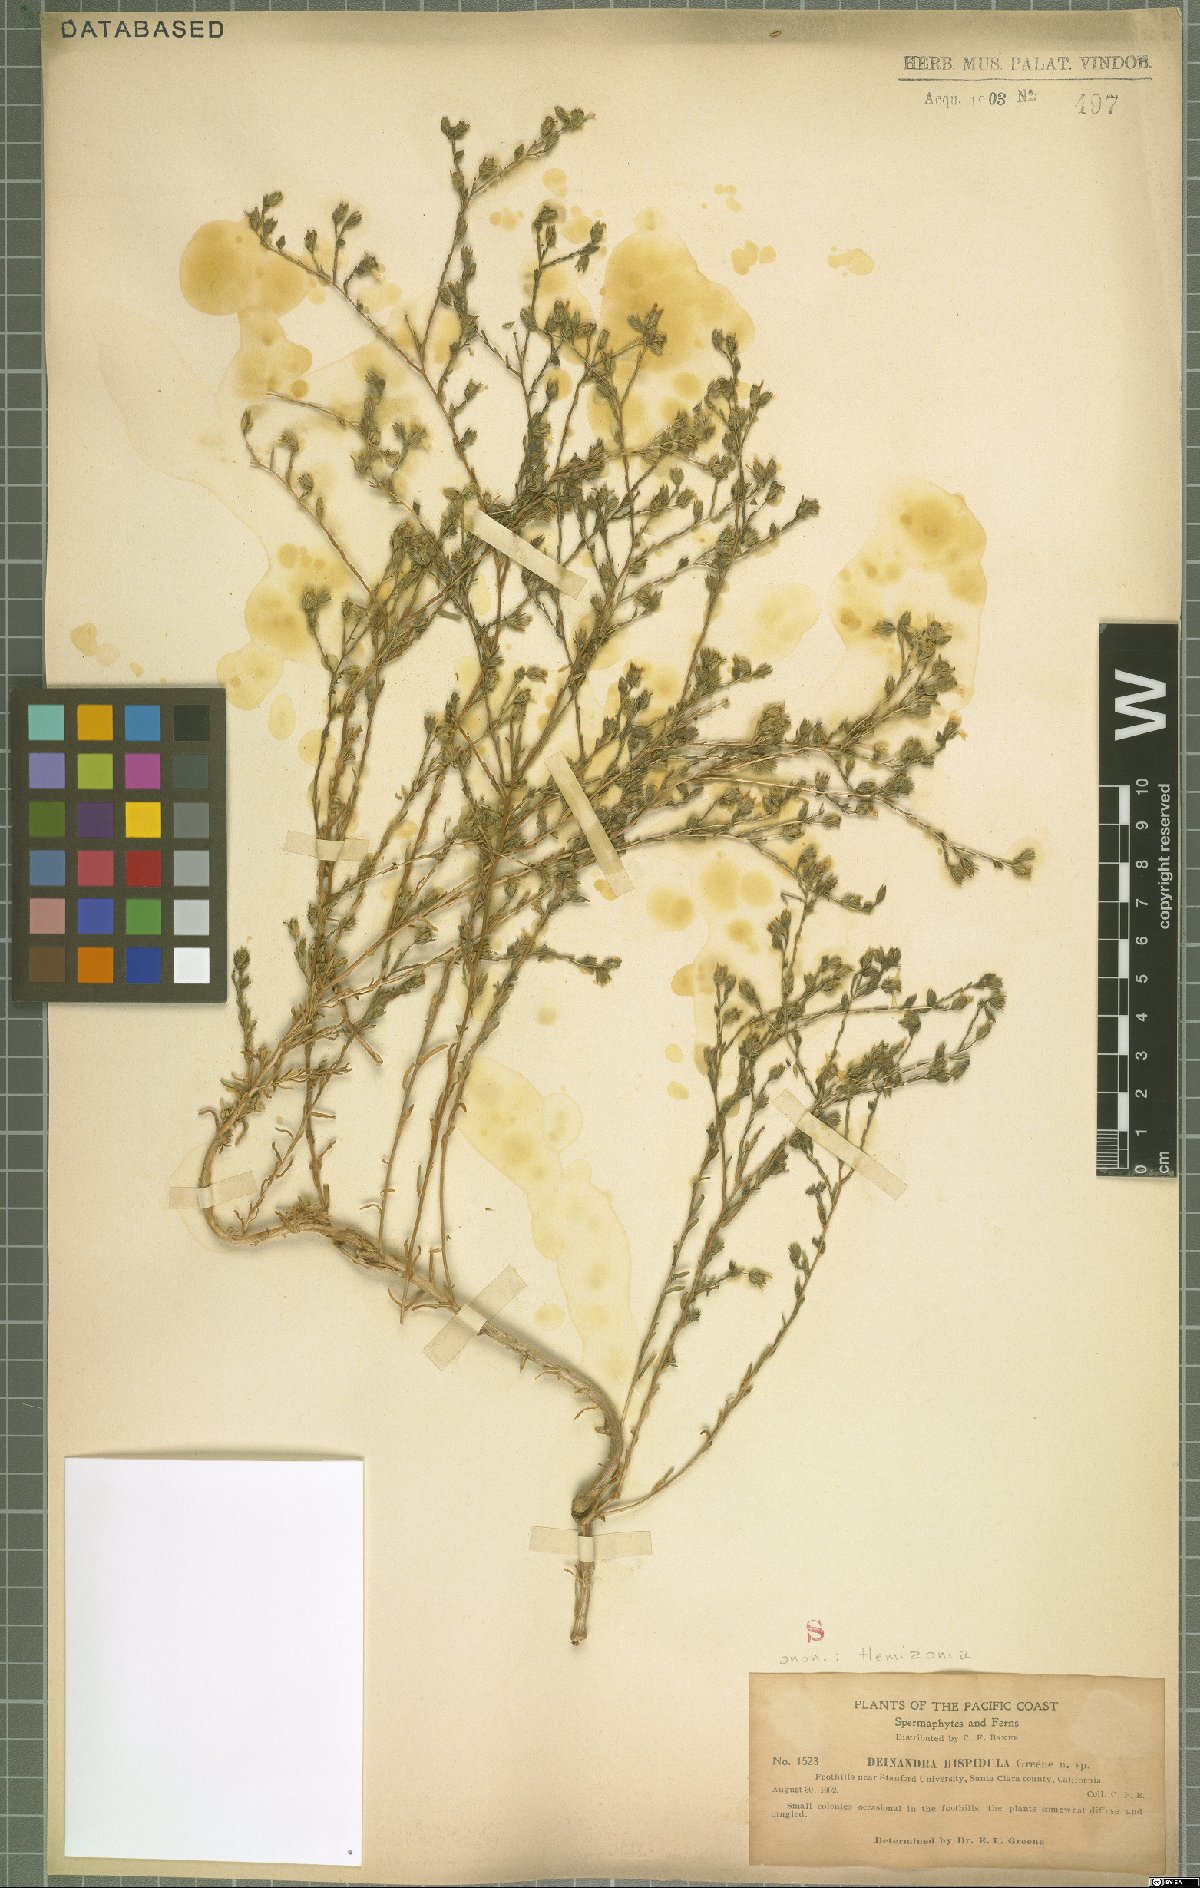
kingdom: Plantae
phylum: Tracheophyta
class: Magnoliopsida
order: Asterales
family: Asteraceae
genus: Hemizonia
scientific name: Hemizonia
